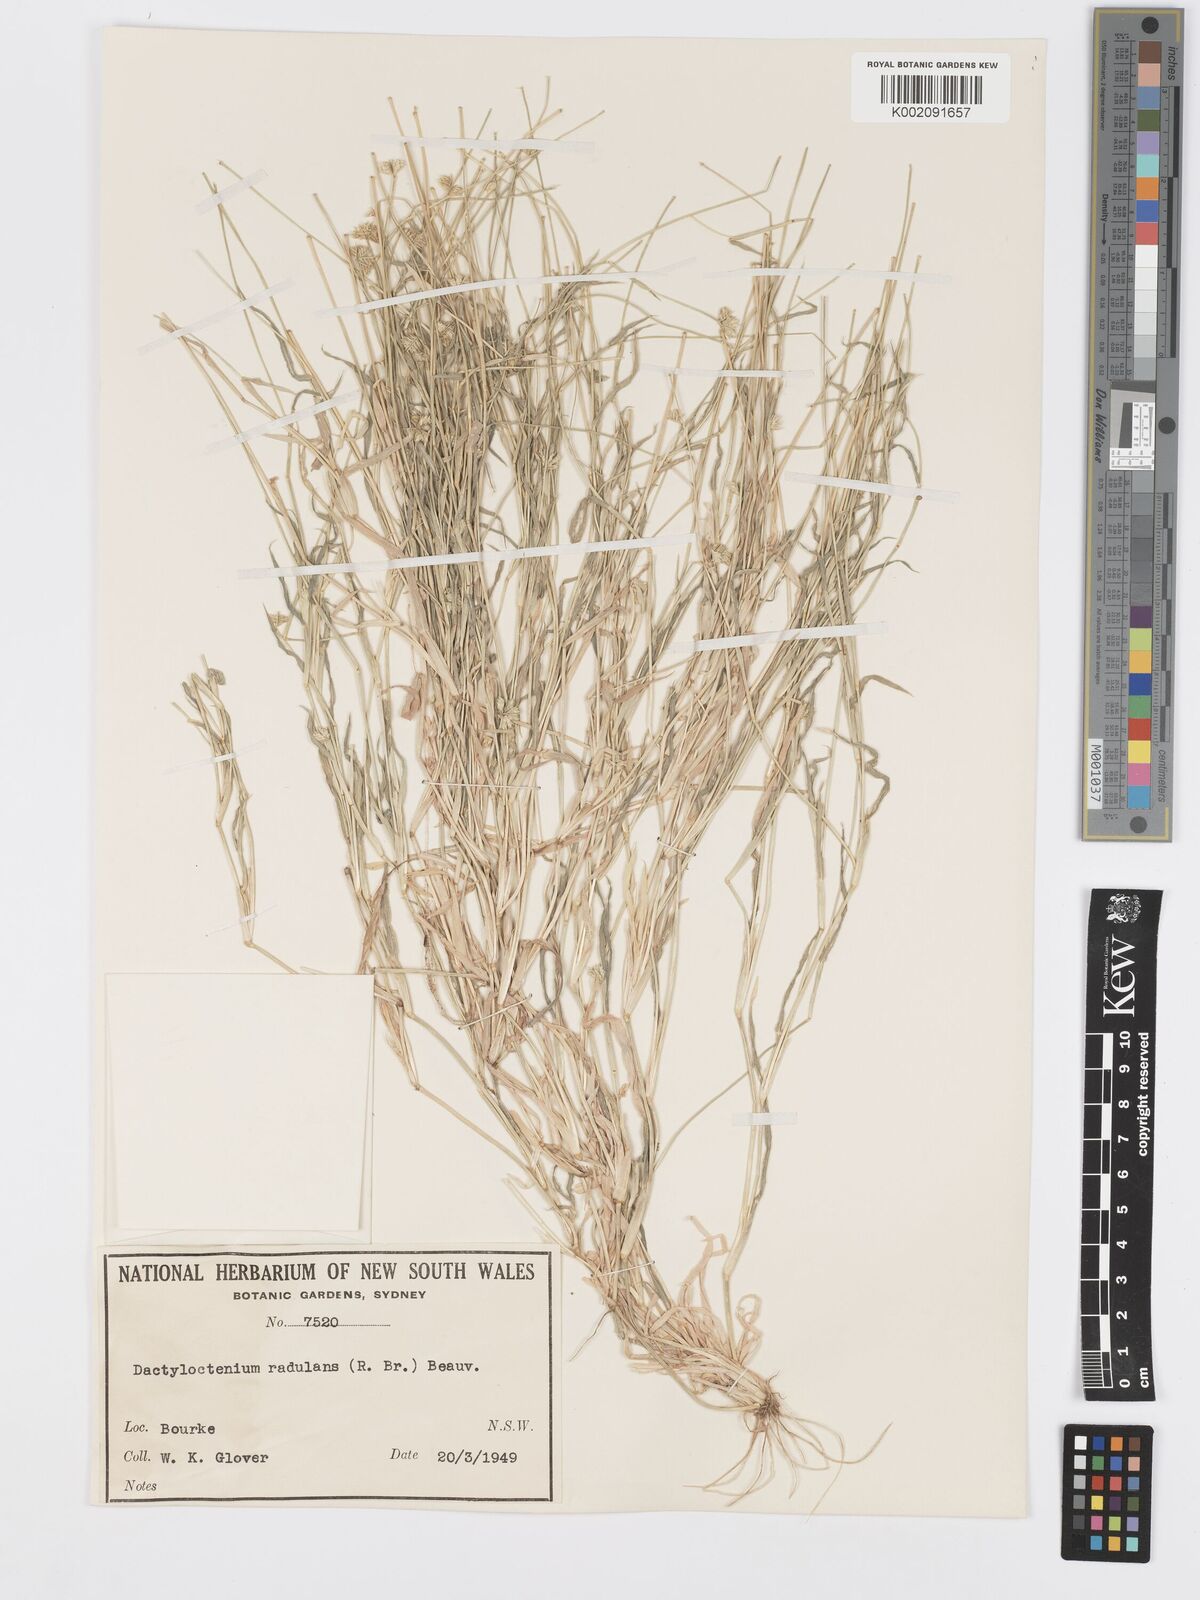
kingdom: Plantae
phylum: Tracheophyta
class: Liliopsida
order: Poales
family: Poaceae
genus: Dactyloctenium
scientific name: Dactyloctenium radulans
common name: Button-grass
